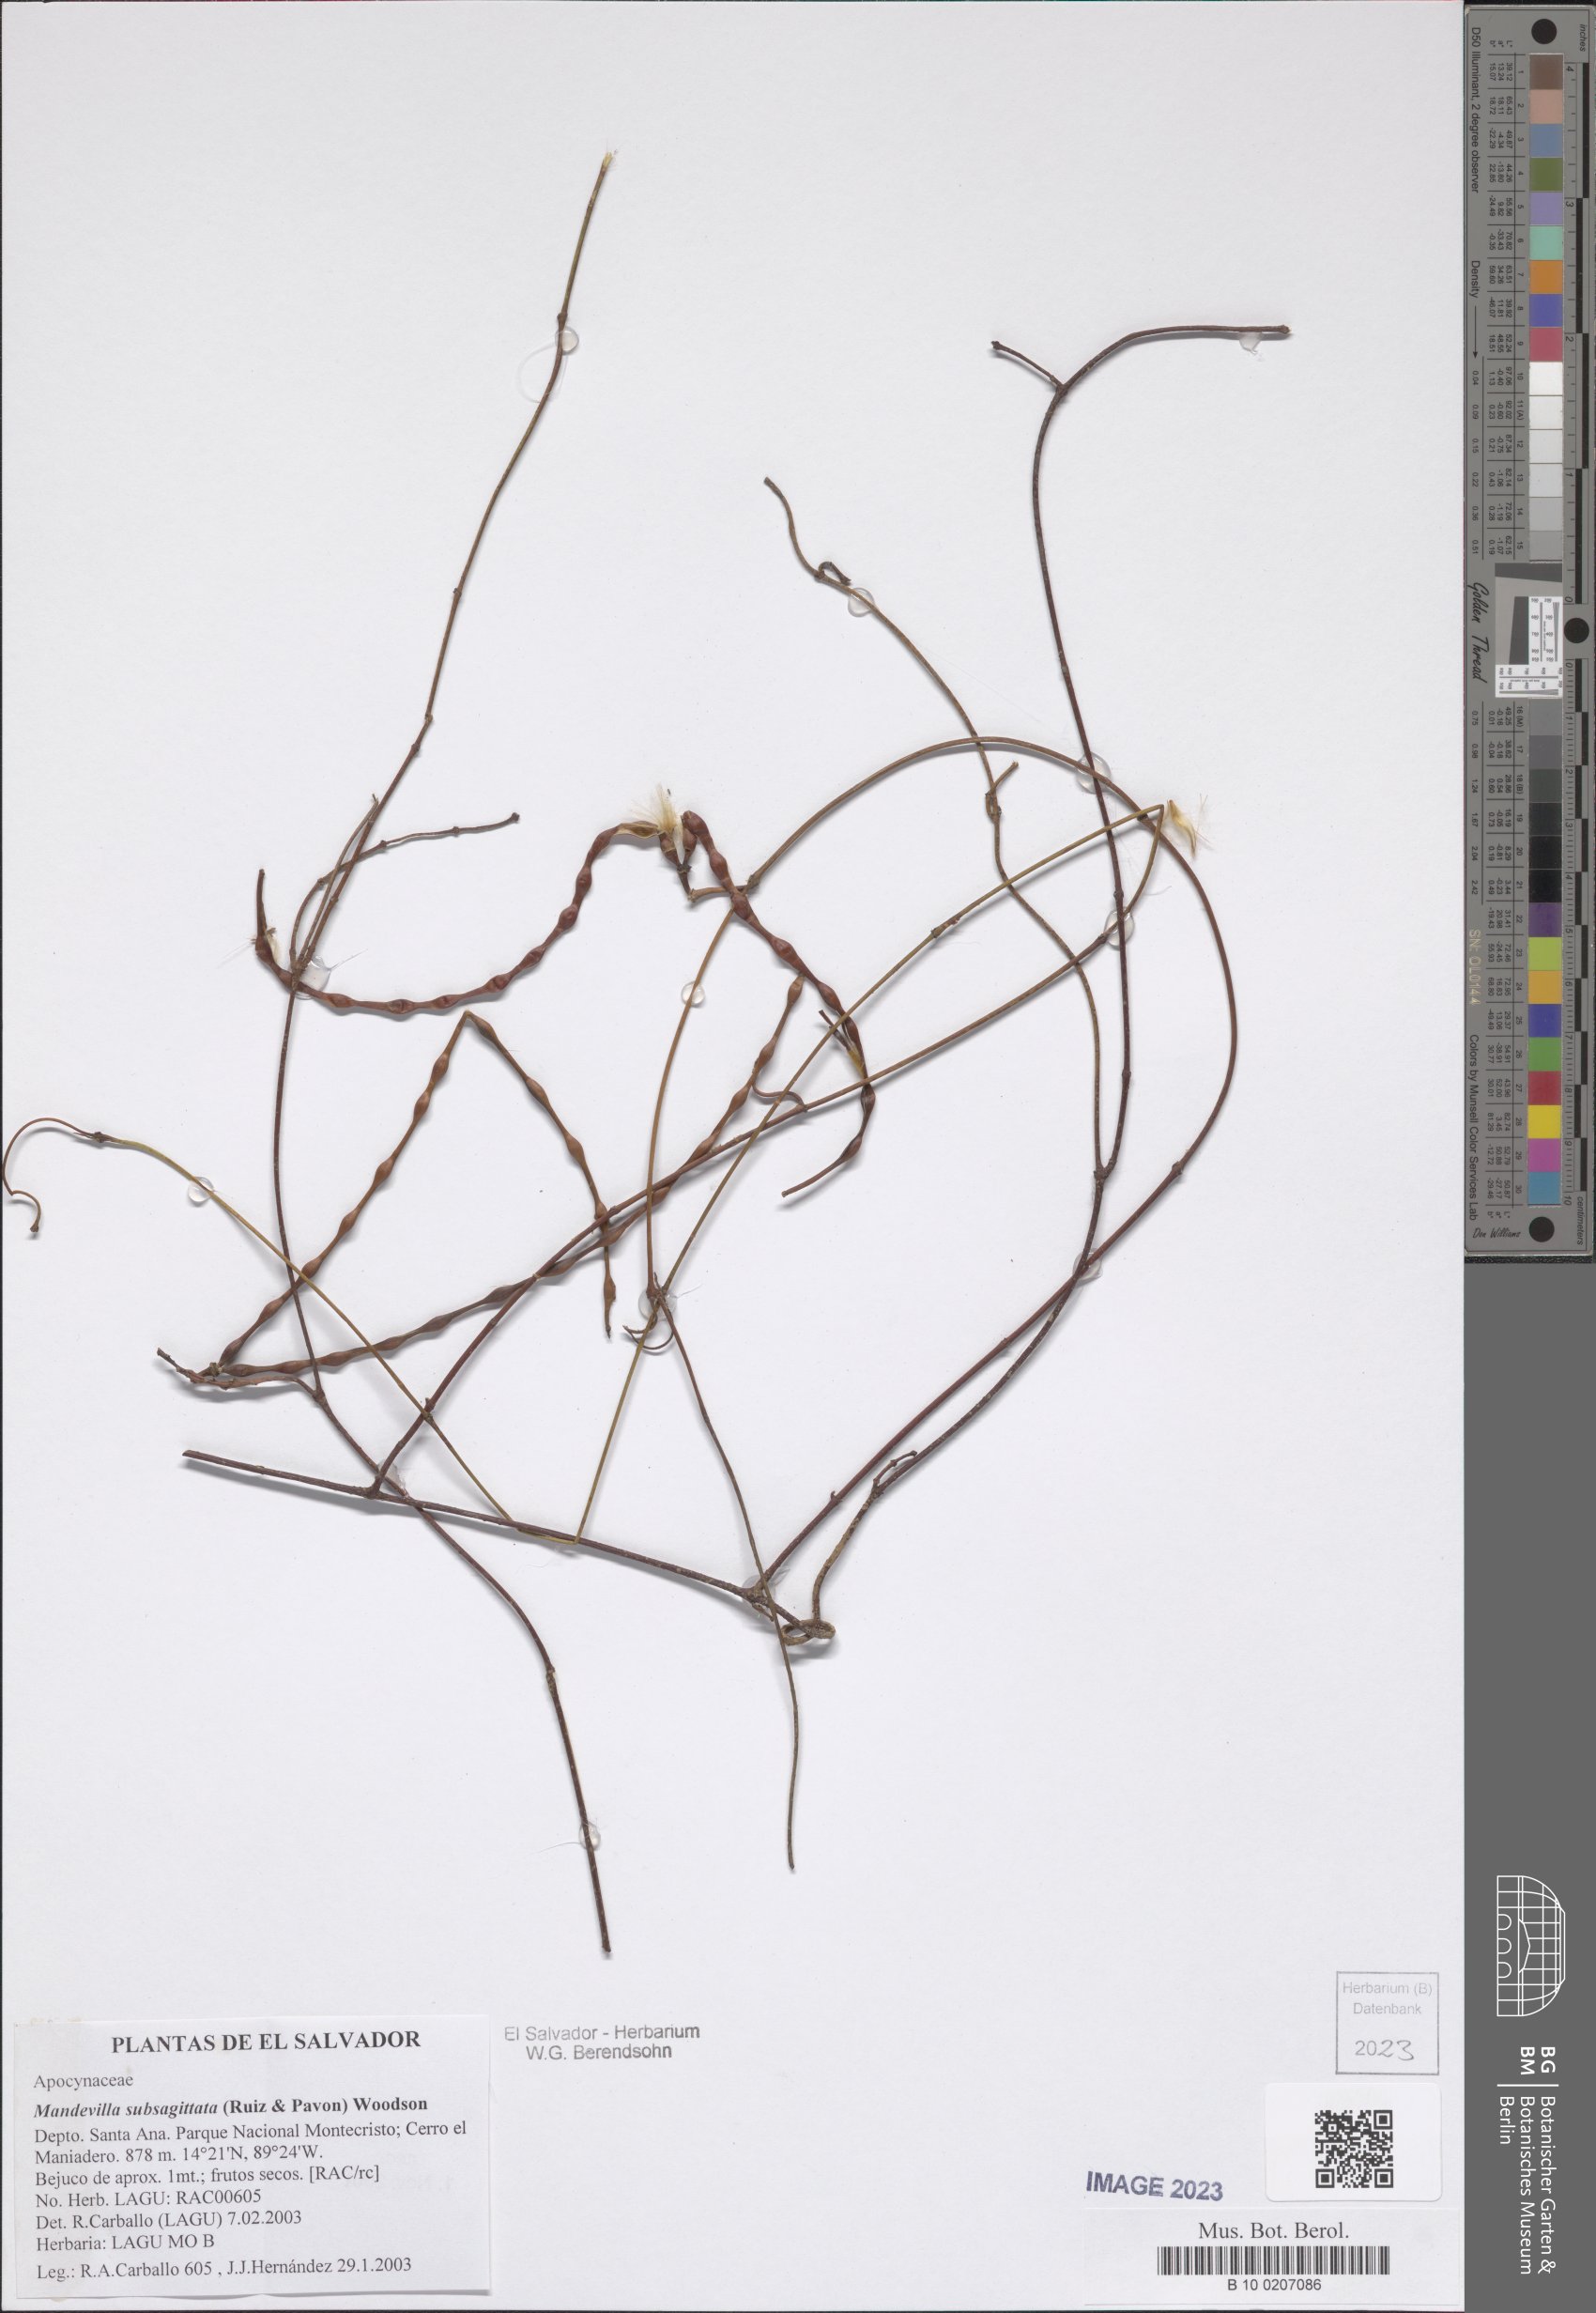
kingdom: Plantae
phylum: Tracheophyta
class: Magnoliopsida
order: Gentianales
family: Apocynaceae
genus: Mandevilla
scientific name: Mandevilla subsagittata
